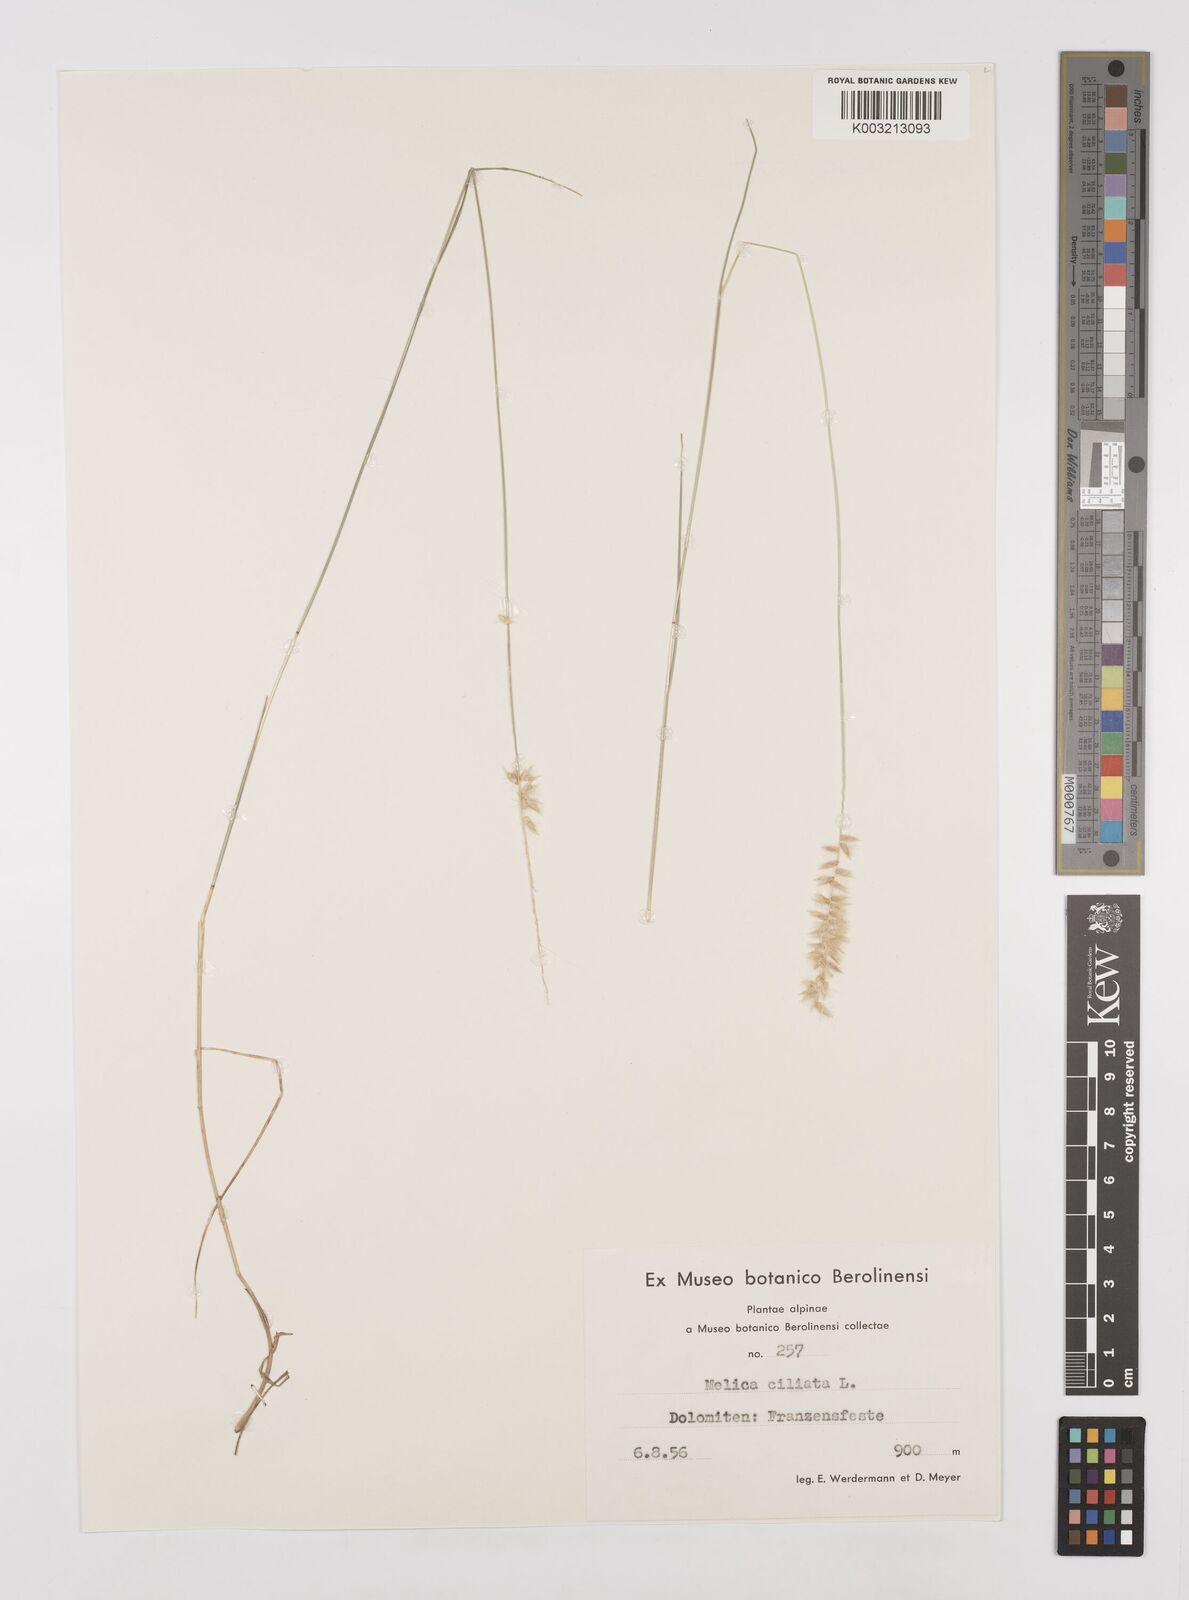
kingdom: Plantae
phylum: Tracheophyta
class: Liliopsida
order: Poales
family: Poaceae
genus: Melica
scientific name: Melica ciliata
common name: Hairy melicgrass
